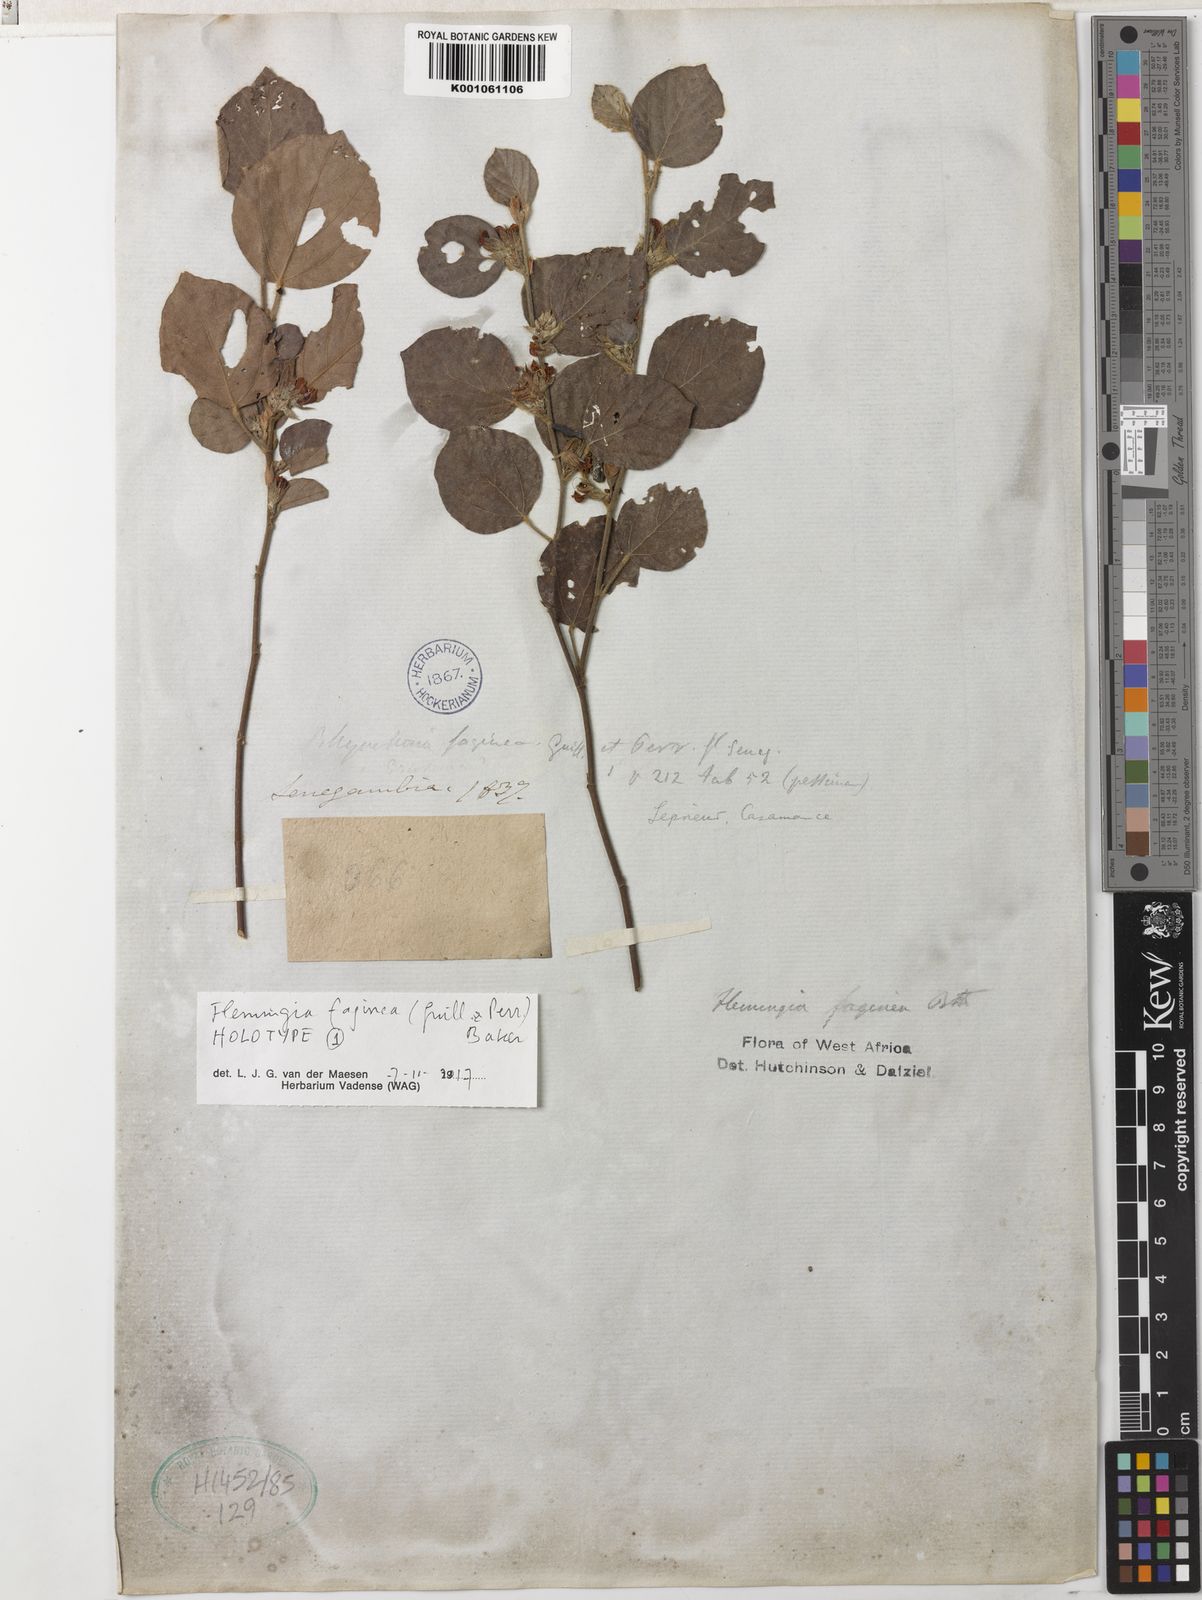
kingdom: Plantae
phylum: Tracheophyta
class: Magnoliopsida
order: Fabales
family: Fabaceae
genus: Flemingia
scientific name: Flemingia faginea
